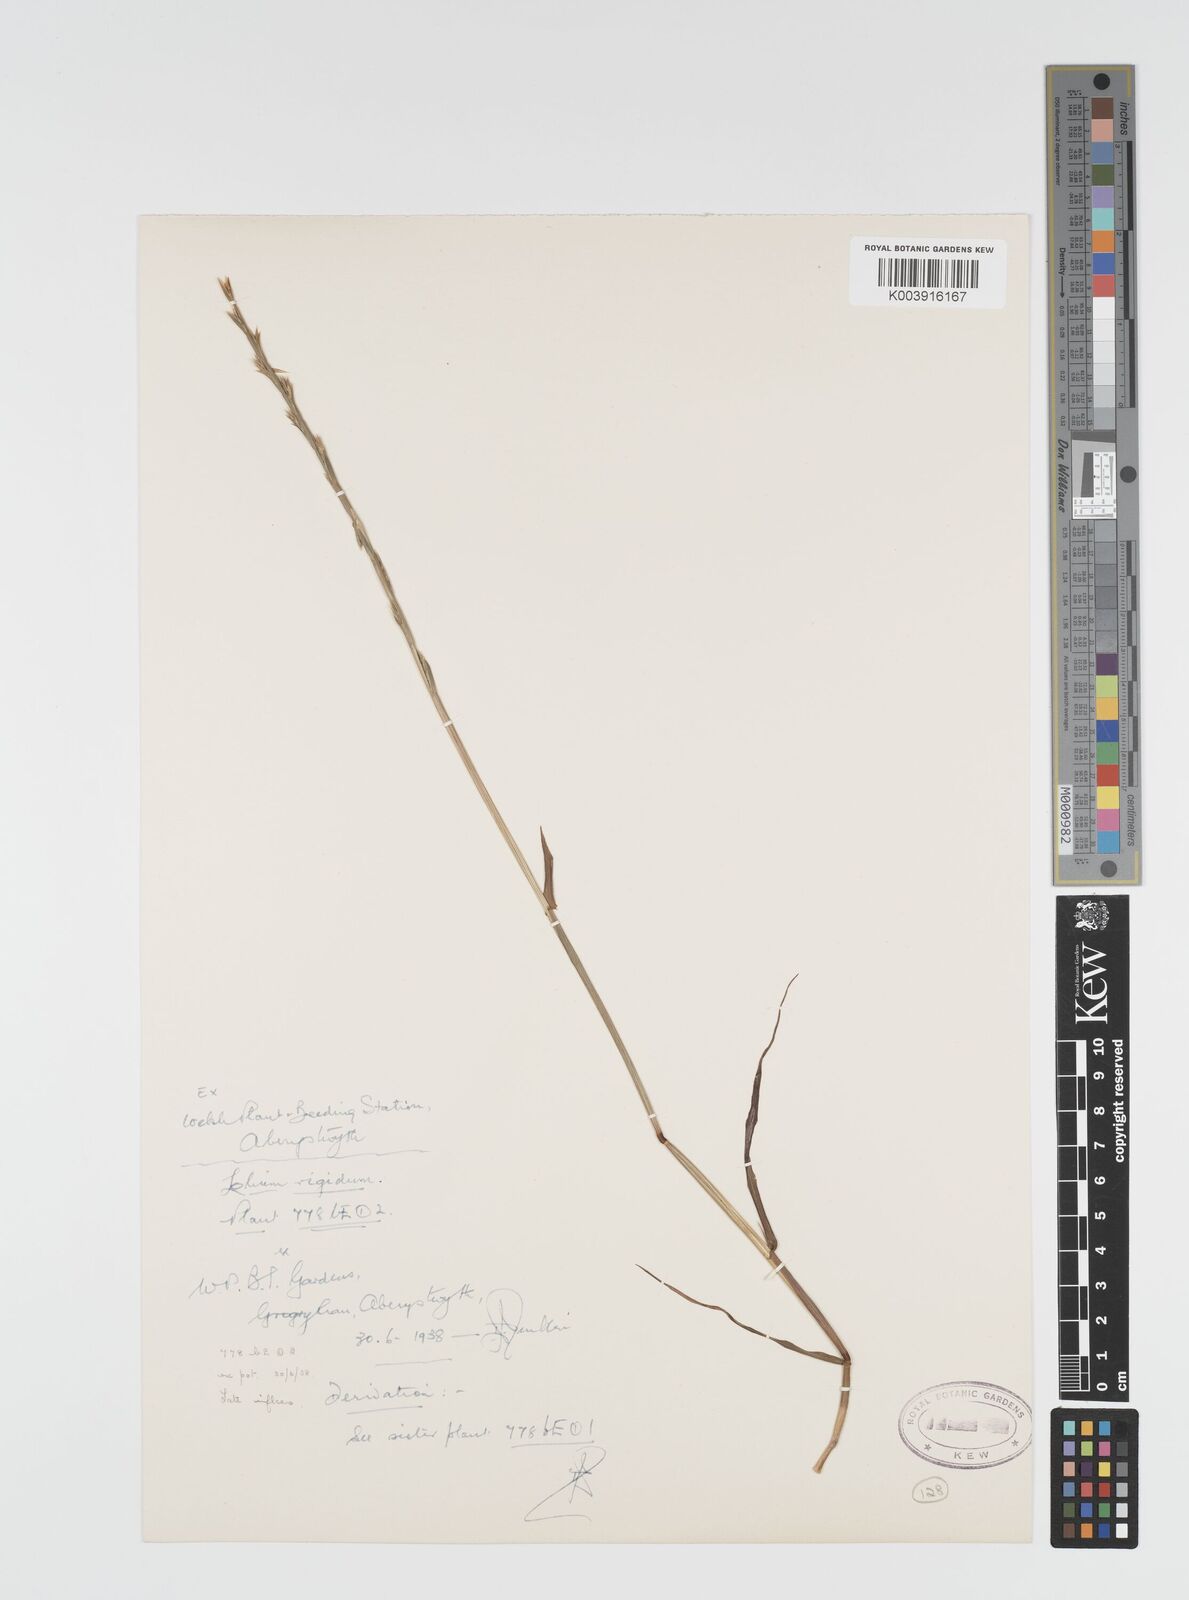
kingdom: Plantae
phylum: Tracheophyta
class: Liliopsida
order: Poales
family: Poaceae
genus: Lolium
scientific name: Lolium rigidum
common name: Wimmera ryegrass
